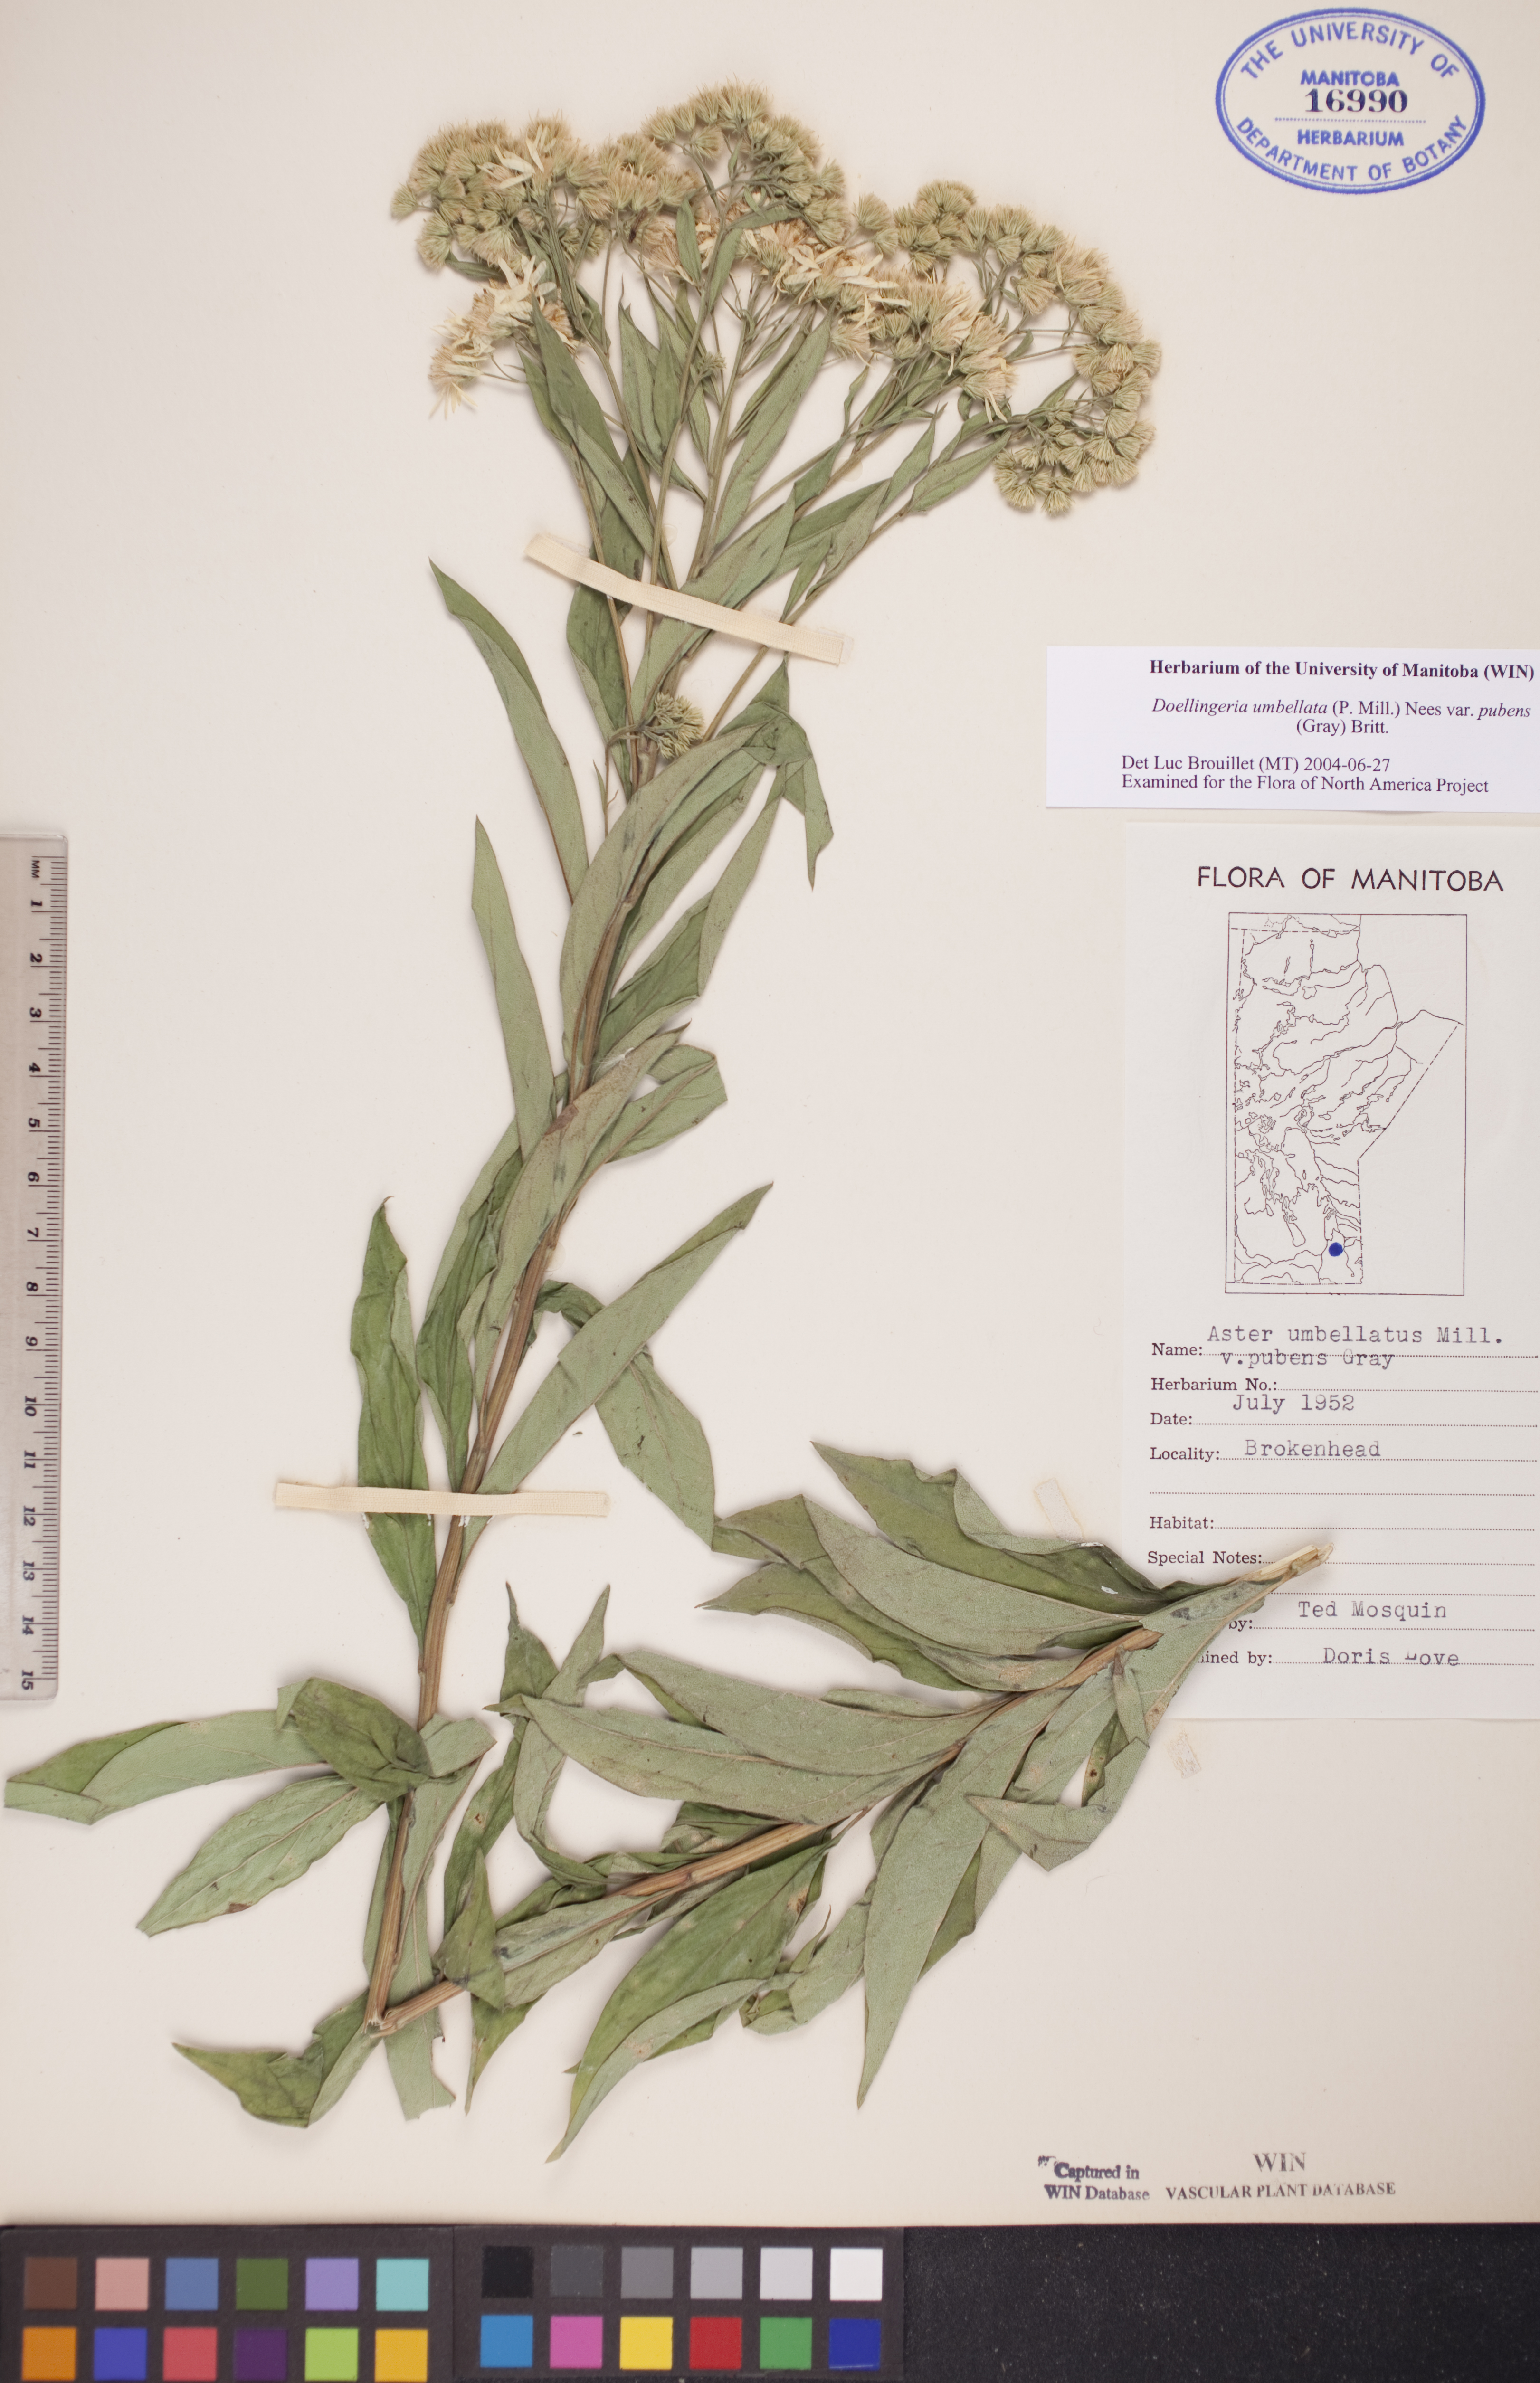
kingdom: Plantae
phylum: Tracheophyta
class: Magnoliopsida
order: Asterales
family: Asteraceae
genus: Doellingeria
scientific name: Doellingeria umbellata
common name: Flat-top white aster
